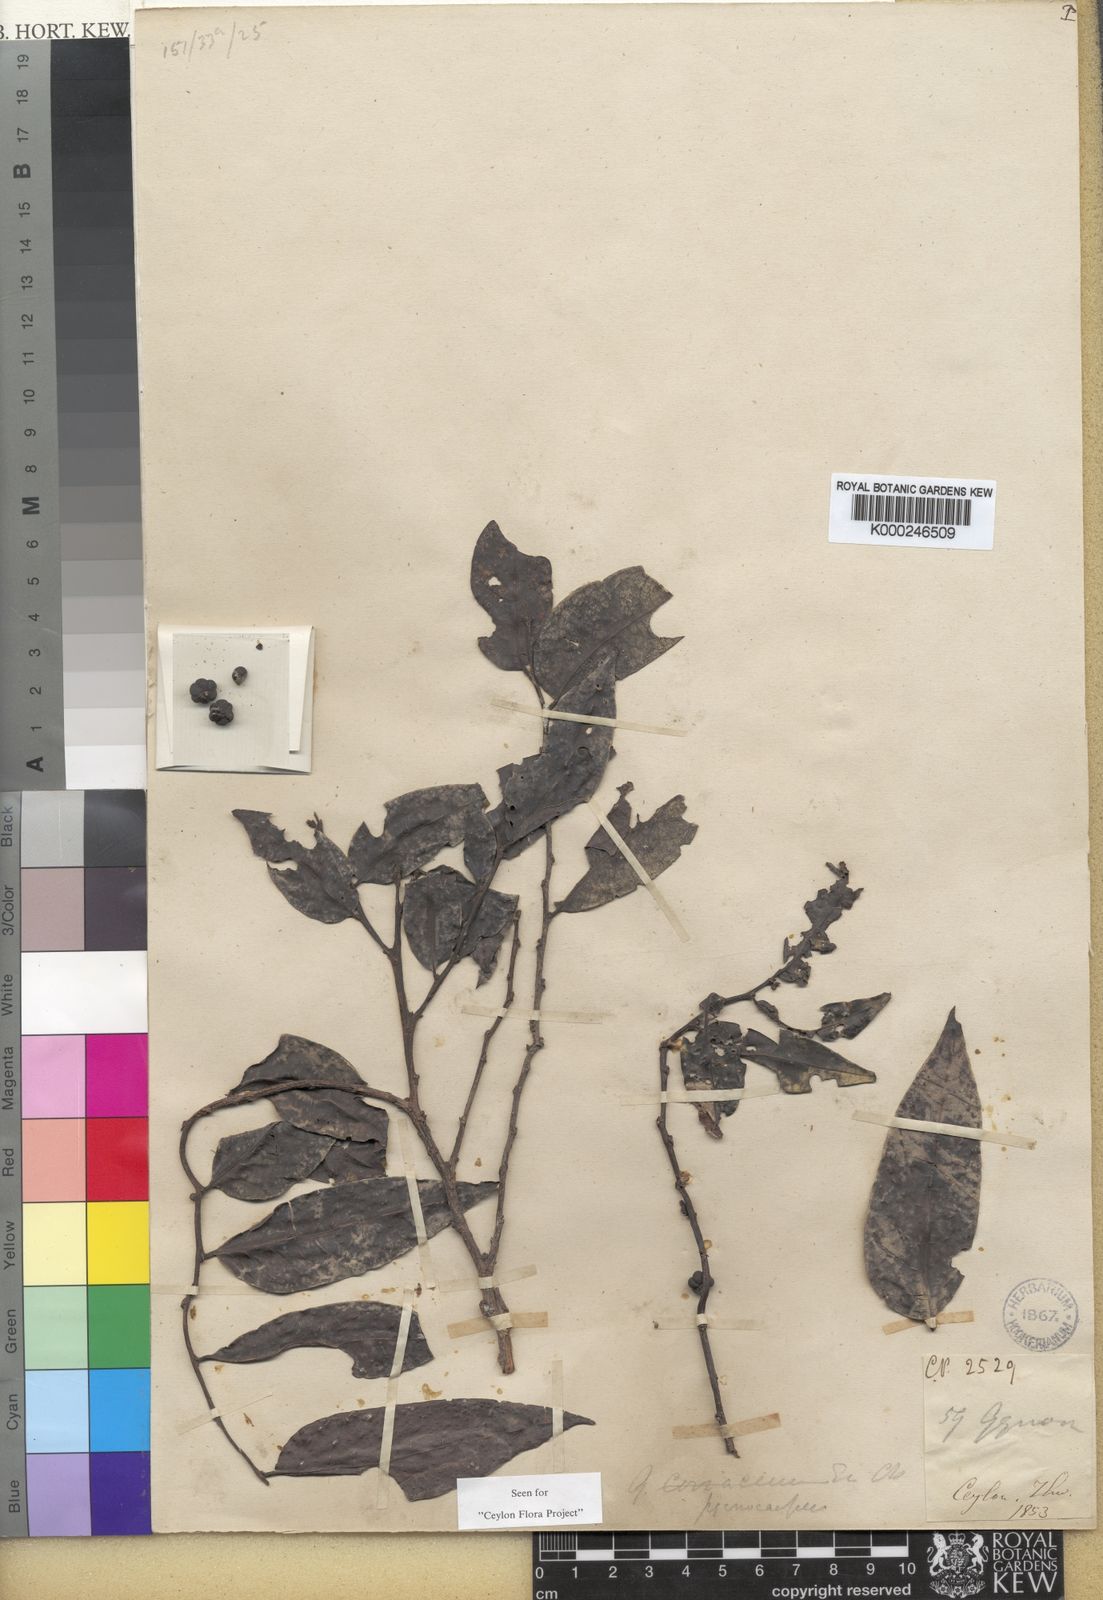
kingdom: Plantae
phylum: Tracheophyta
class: Magnoliopsida
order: Malpighiales
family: Phyllanthaceae
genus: Glochidion
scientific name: Glochidion
